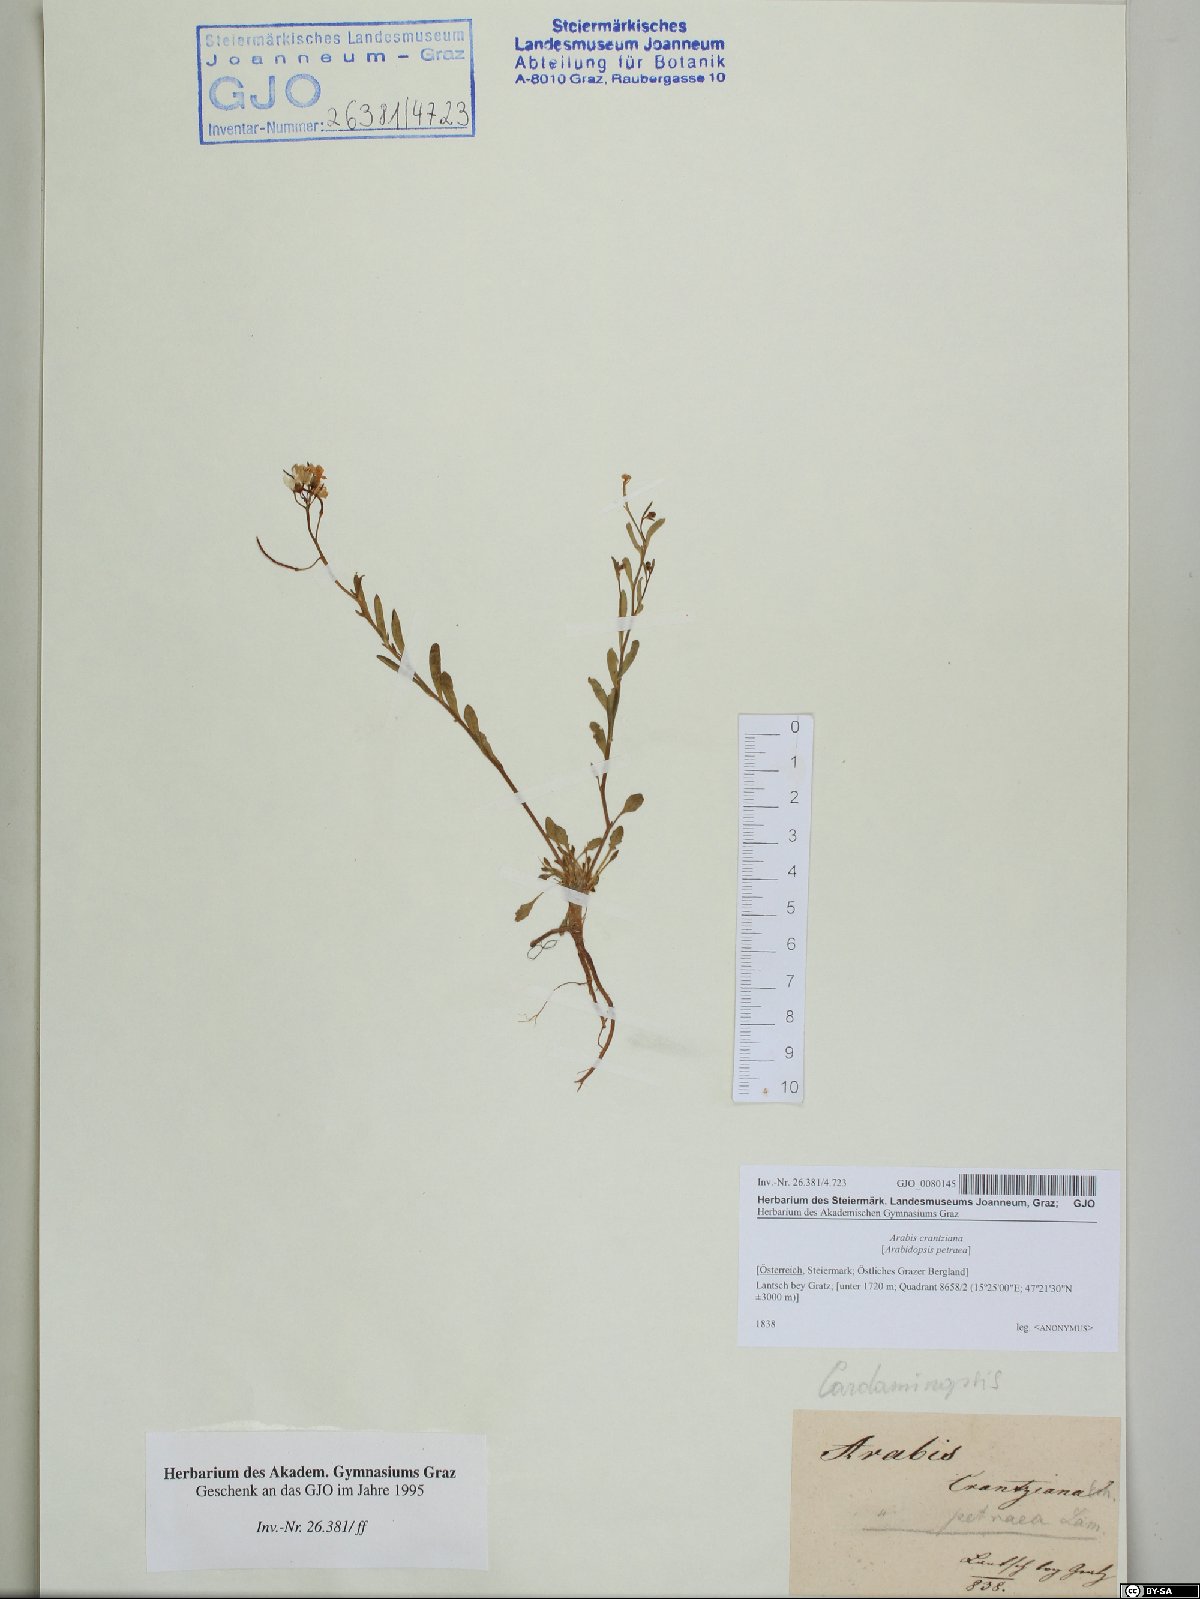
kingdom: Plantae
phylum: Tracheophyta
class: Magnoliopsida
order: Brassicales
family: Brassicaceae
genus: Arabidopsis
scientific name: Arabidopsis lyrata
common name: Lyrate rockcress
